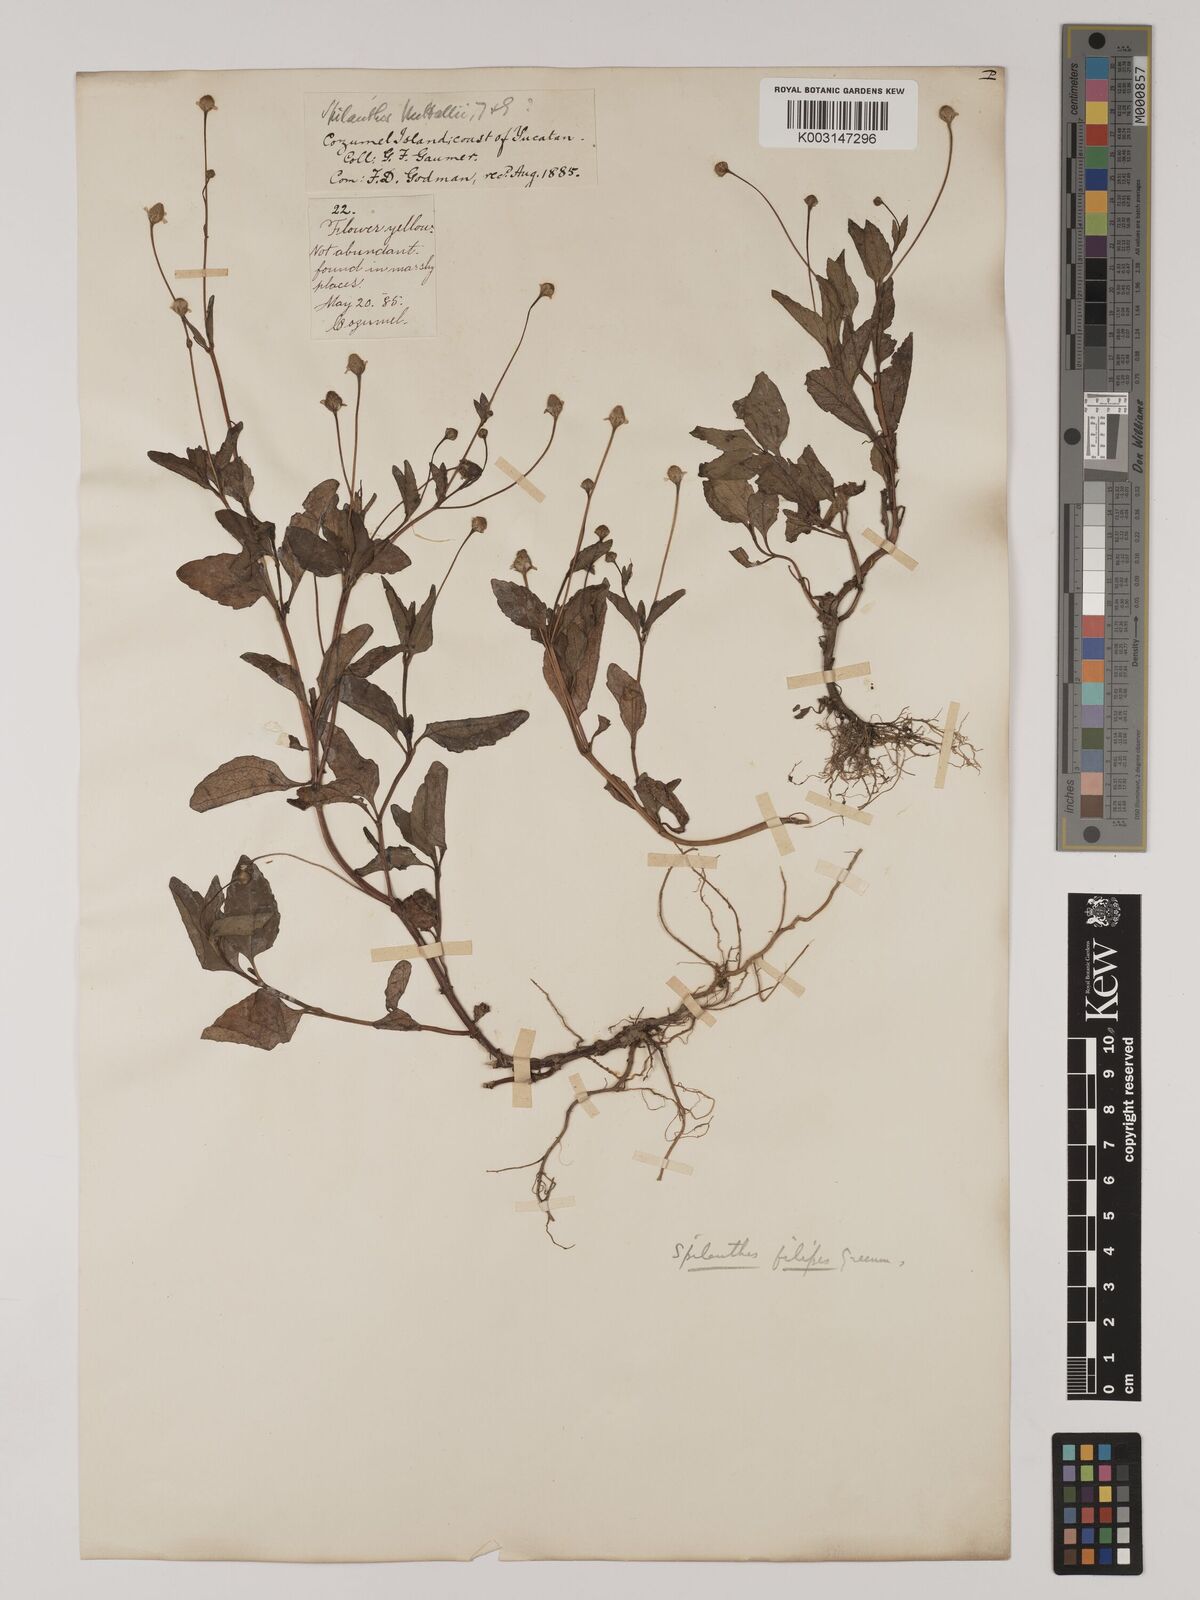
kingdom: Plantae
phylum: Tracheophyta
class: Magnoliopsida
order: Asterales
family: Asteraceae
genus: Acmella
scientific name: Acmella filipes
